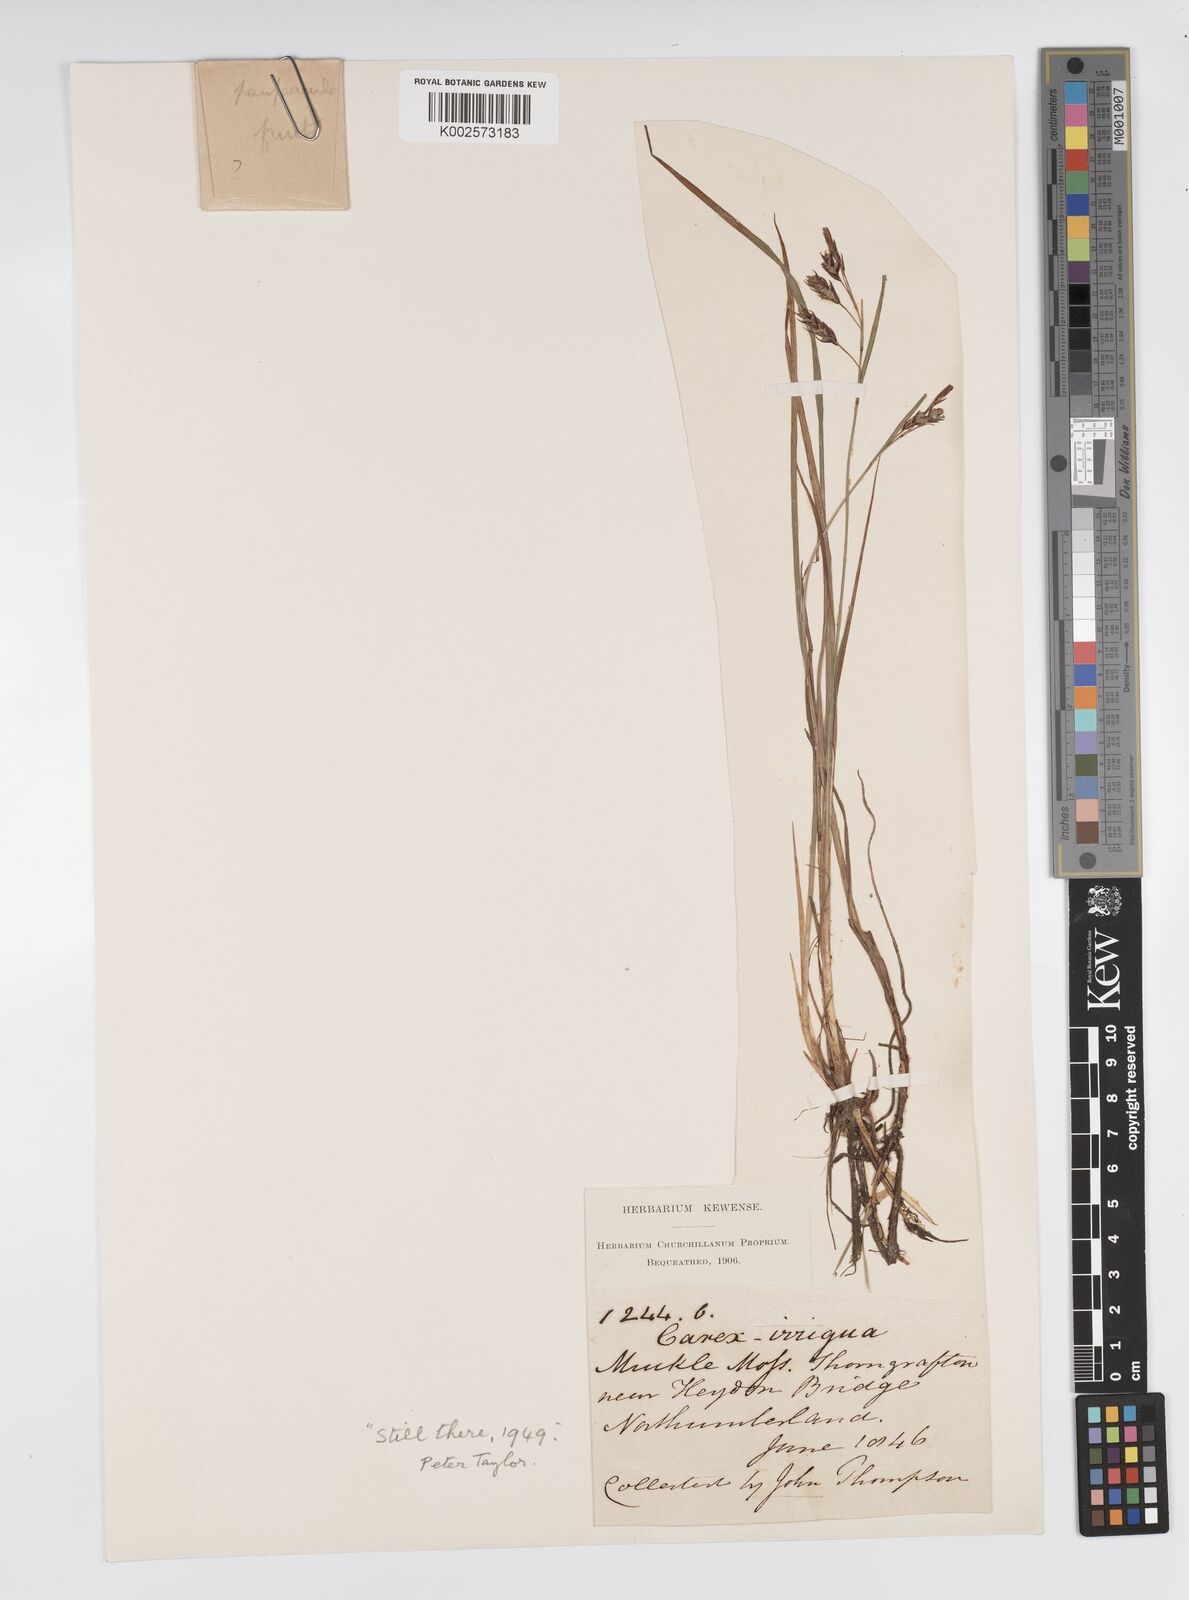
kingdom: Plantae
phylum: Tracheophyta
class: Liliopsida
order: Poales
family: Cyperaceae
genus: Carex
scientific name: Carex magellanica
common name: Bog sedge
